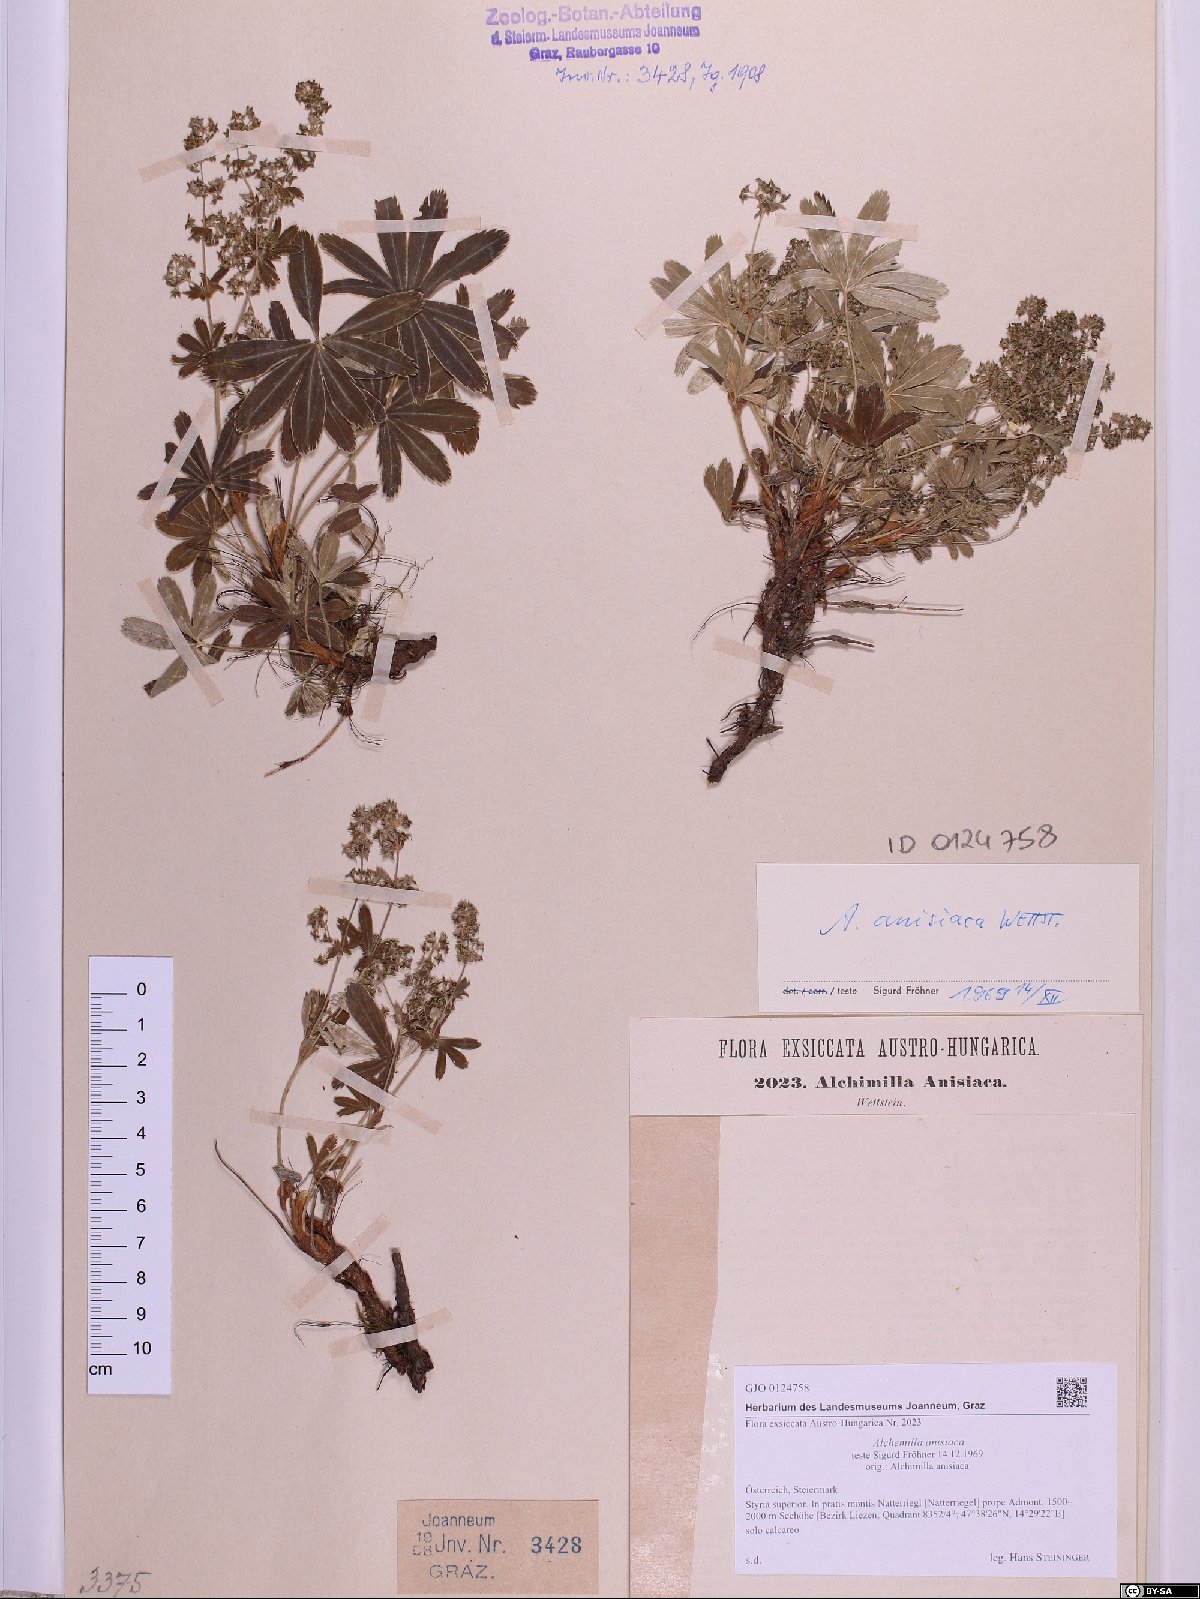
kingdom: Plantae
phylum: Tracheophyta
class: Magnoliopsida
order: Rosales
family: Rosaceae
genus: Alchemilla
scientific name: Alchemilla anisiaca
